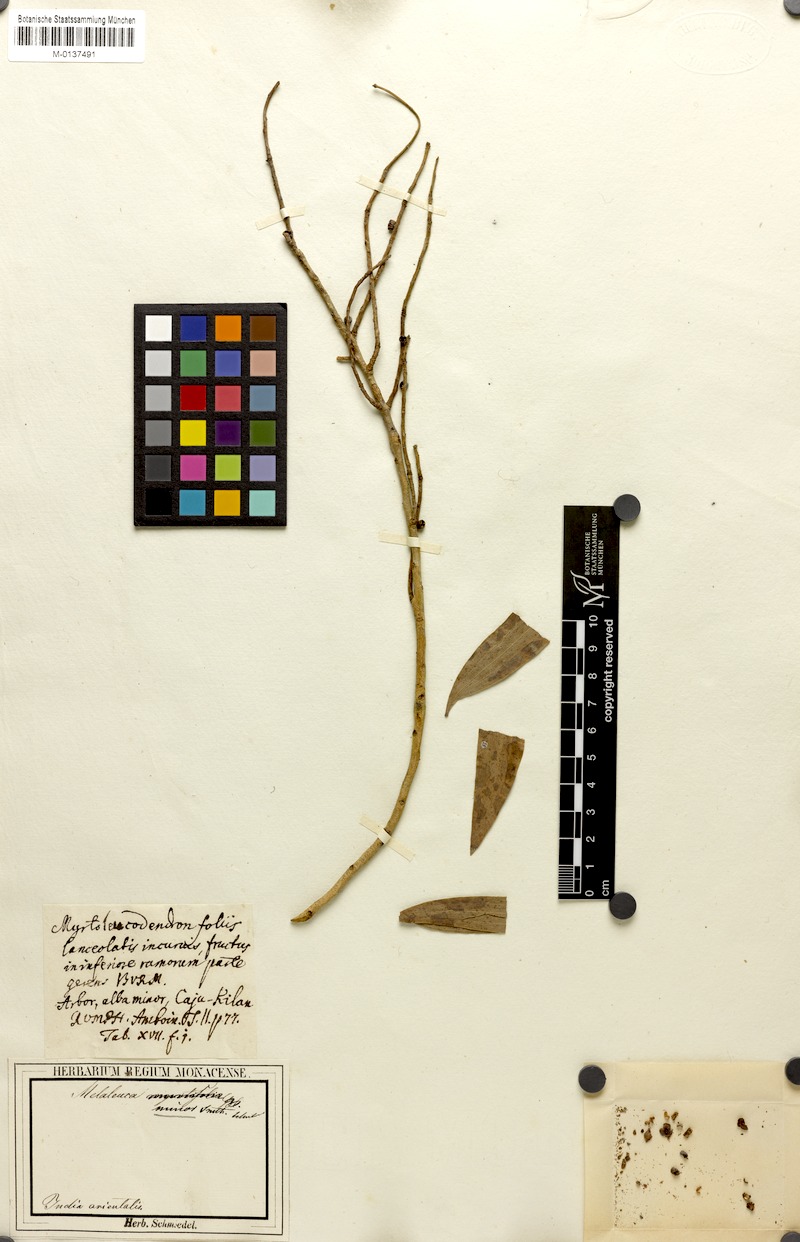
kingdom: Plantae
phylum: Tracheophyta
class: Magnoliopsida
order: Myrtales
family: Myrtaceae
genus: Melaleuca
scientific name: Melaleuca cajuputi
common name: Cajuput
